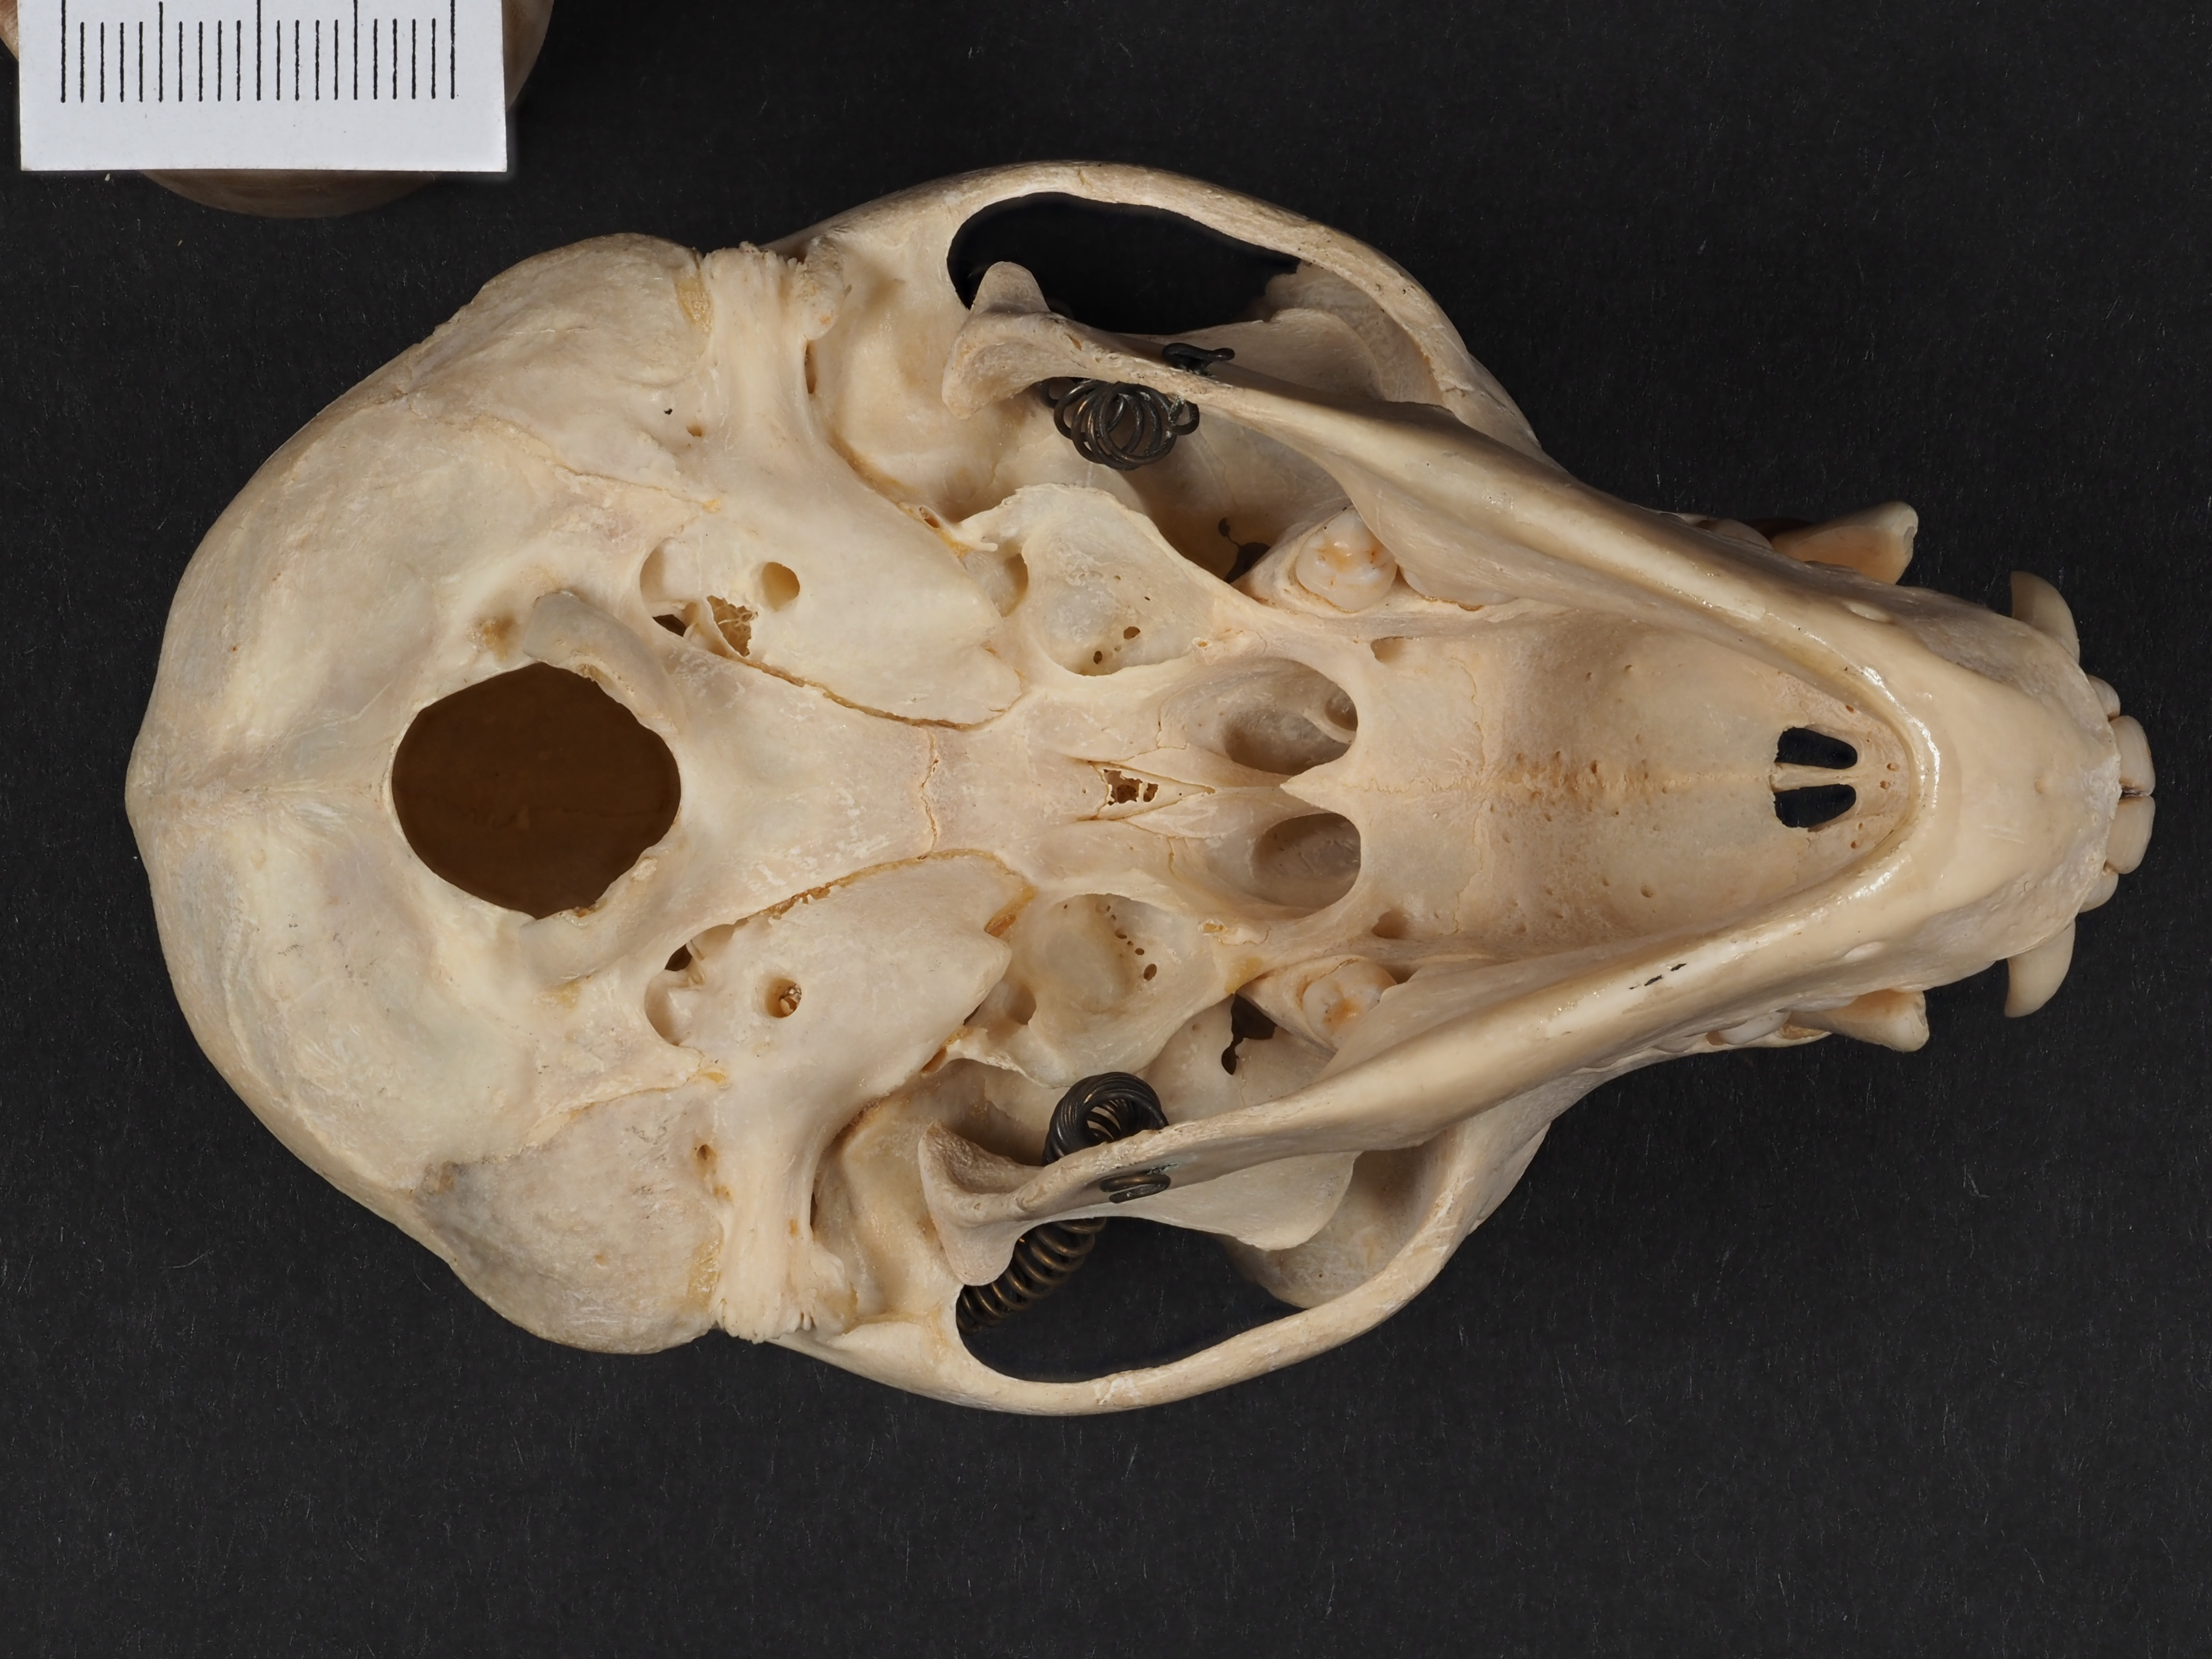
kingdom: Animalia
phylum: Chordata
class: Mammalia
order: Primates
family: Cercopithecidae
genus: Pygathrix
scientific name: Pygathrix
